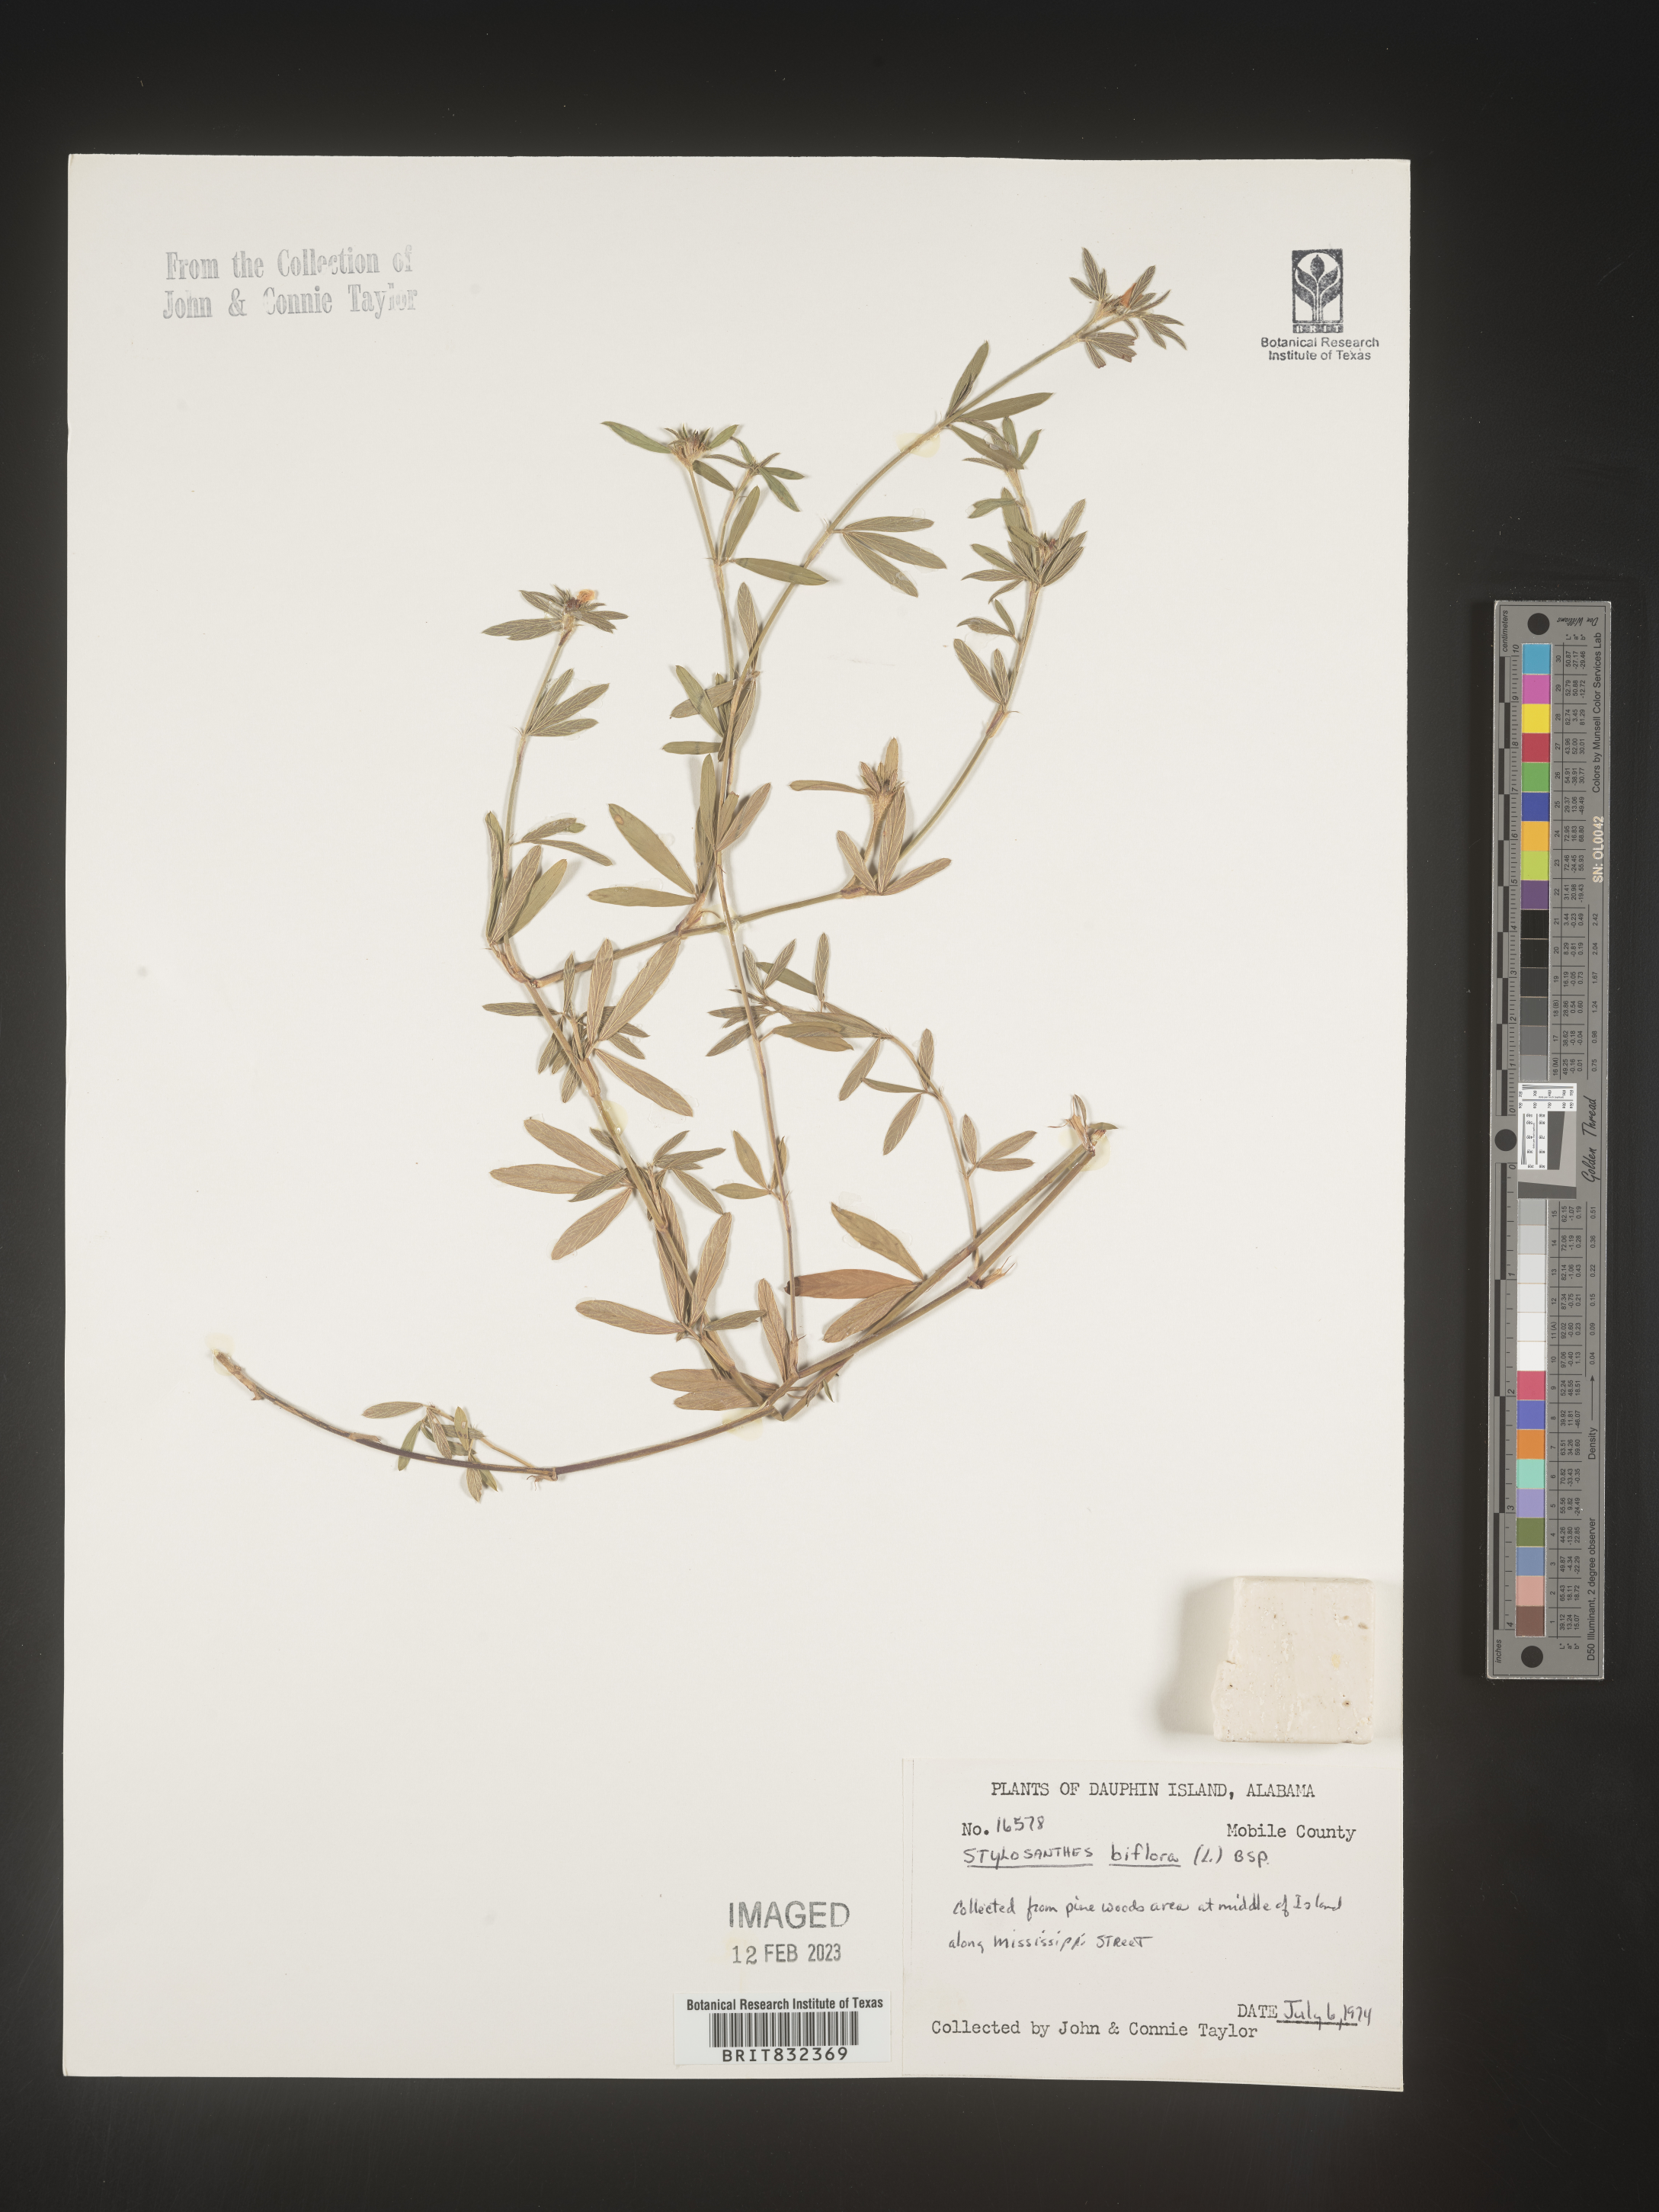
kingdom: Plantae
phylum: Tracheophyta
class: Magnoliopsida
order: Fabales
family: Fabaceae
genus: Stylosanthes
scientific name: Stylosanthes biflora
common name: Two-flower pencil-flower
